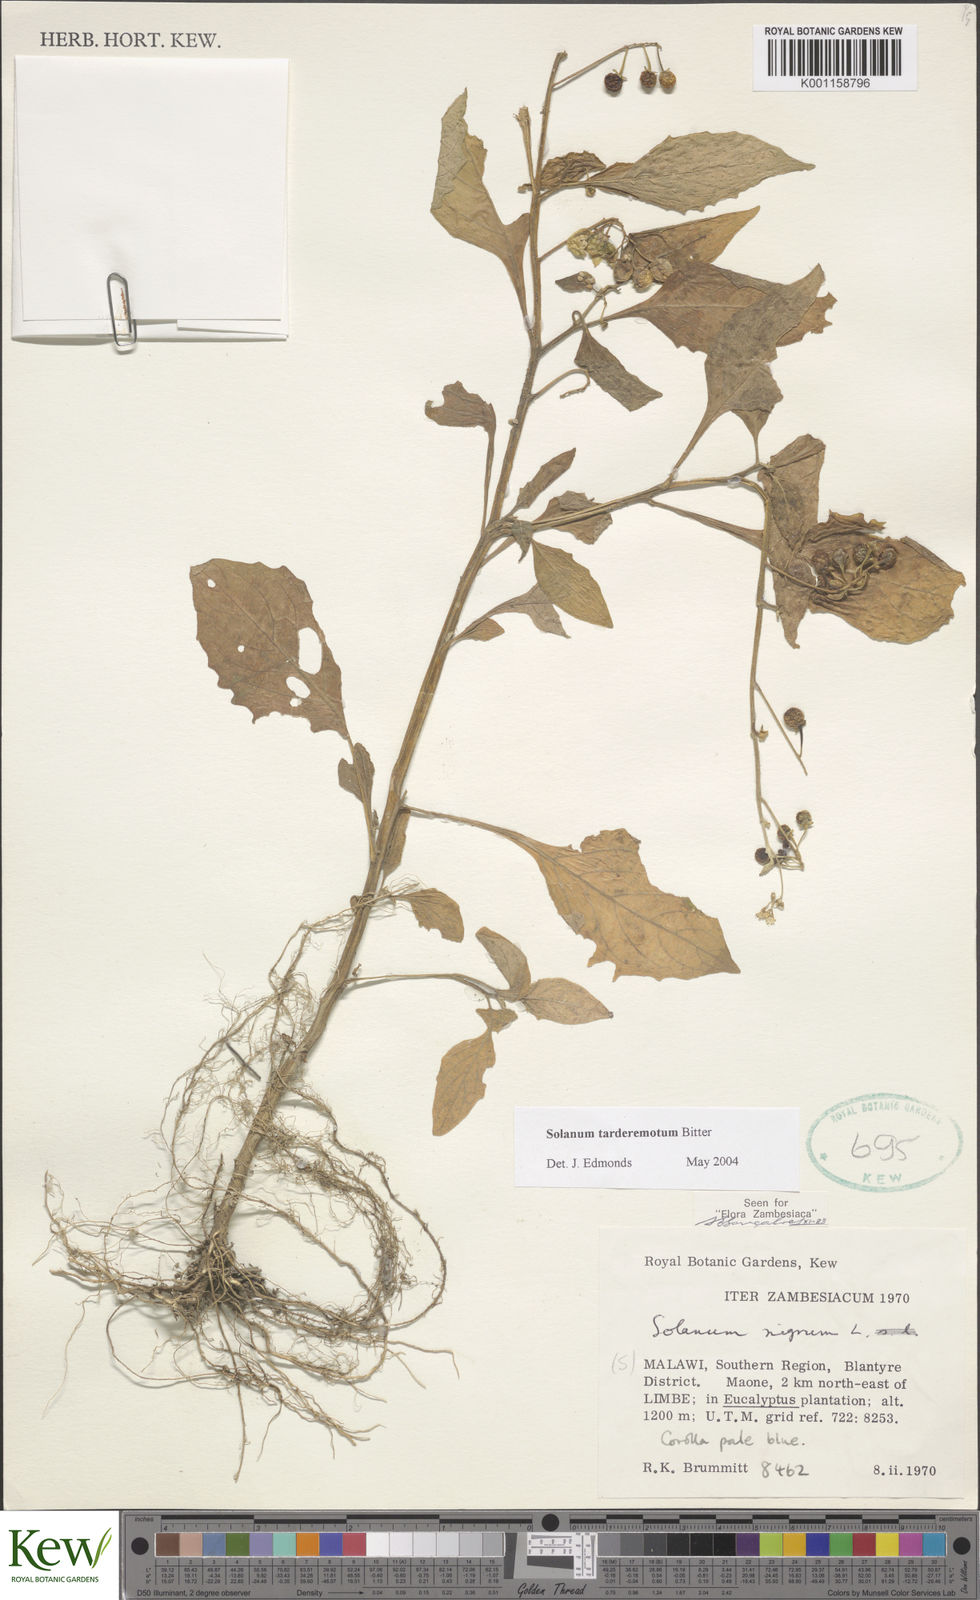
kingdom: Plantae
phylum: Tracheophyta
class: Magnoliopsida
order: Solanales
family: Solanaceae
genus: Solanum
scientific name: Solanum tarderemotum
